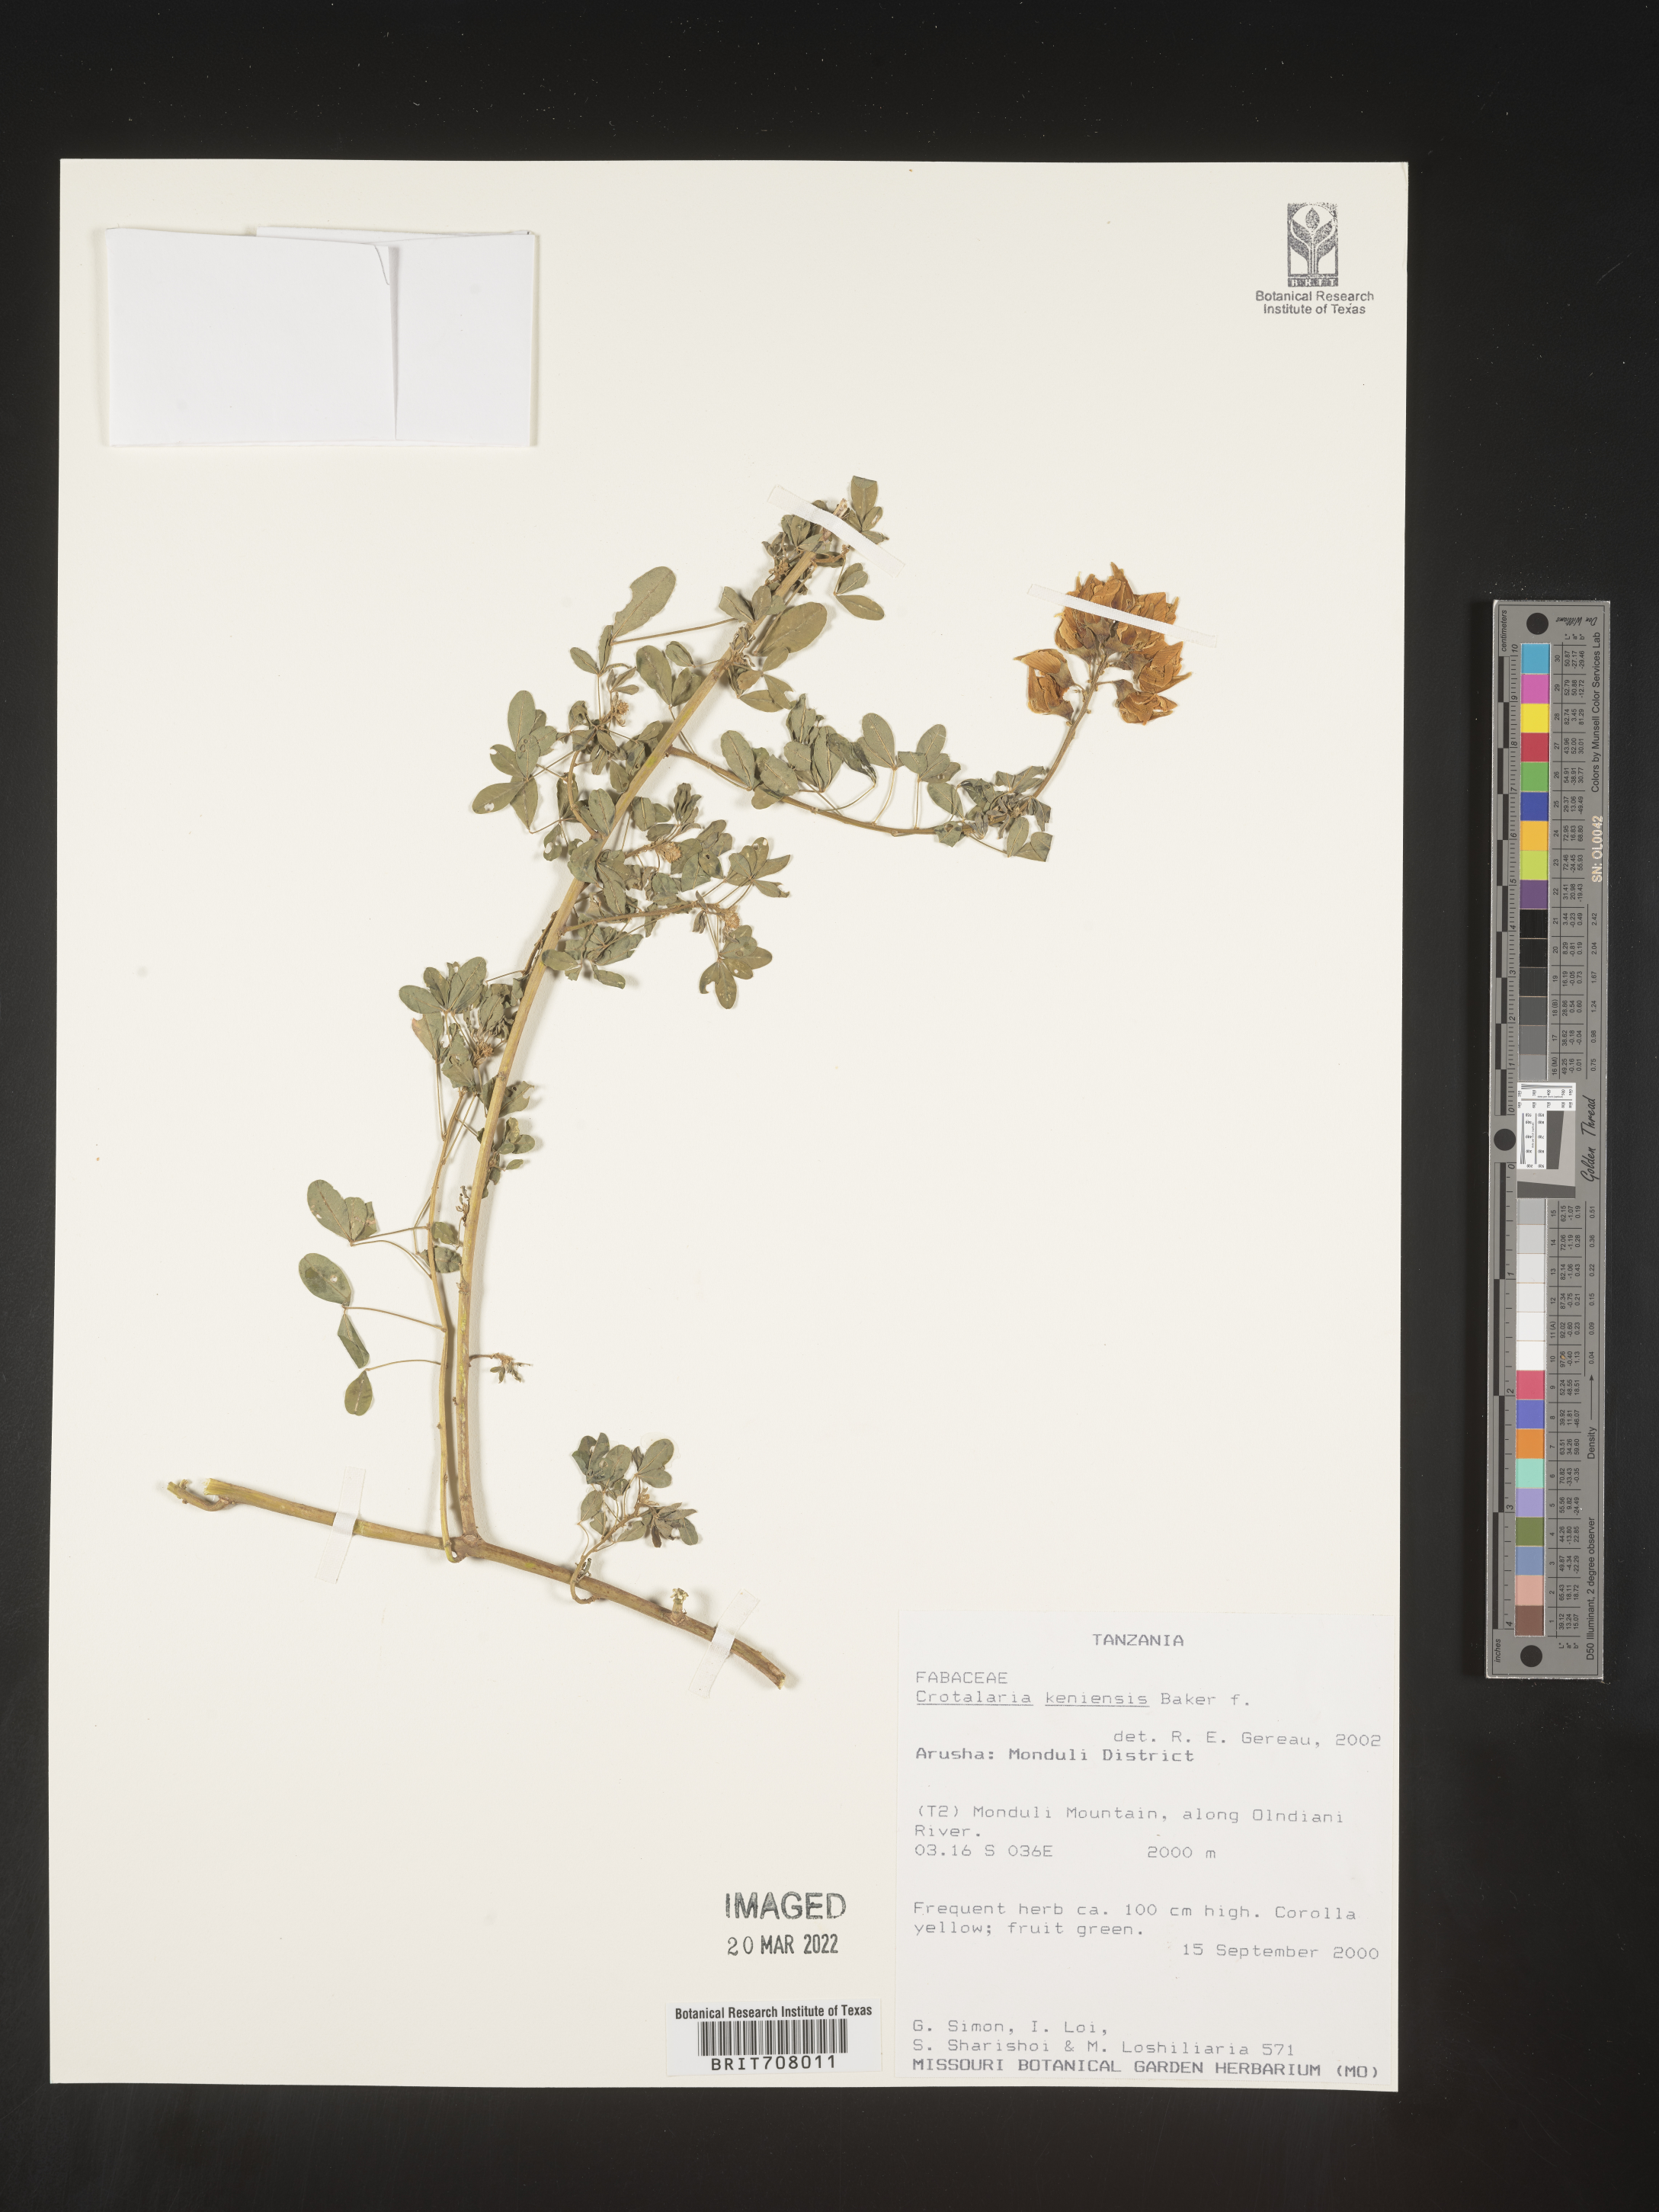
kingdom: Plantae
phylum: Tracheophyta
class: Magnoliopsida
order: Fabales
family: Fabaceae
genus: Crotalaria
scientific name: Crotalaria
